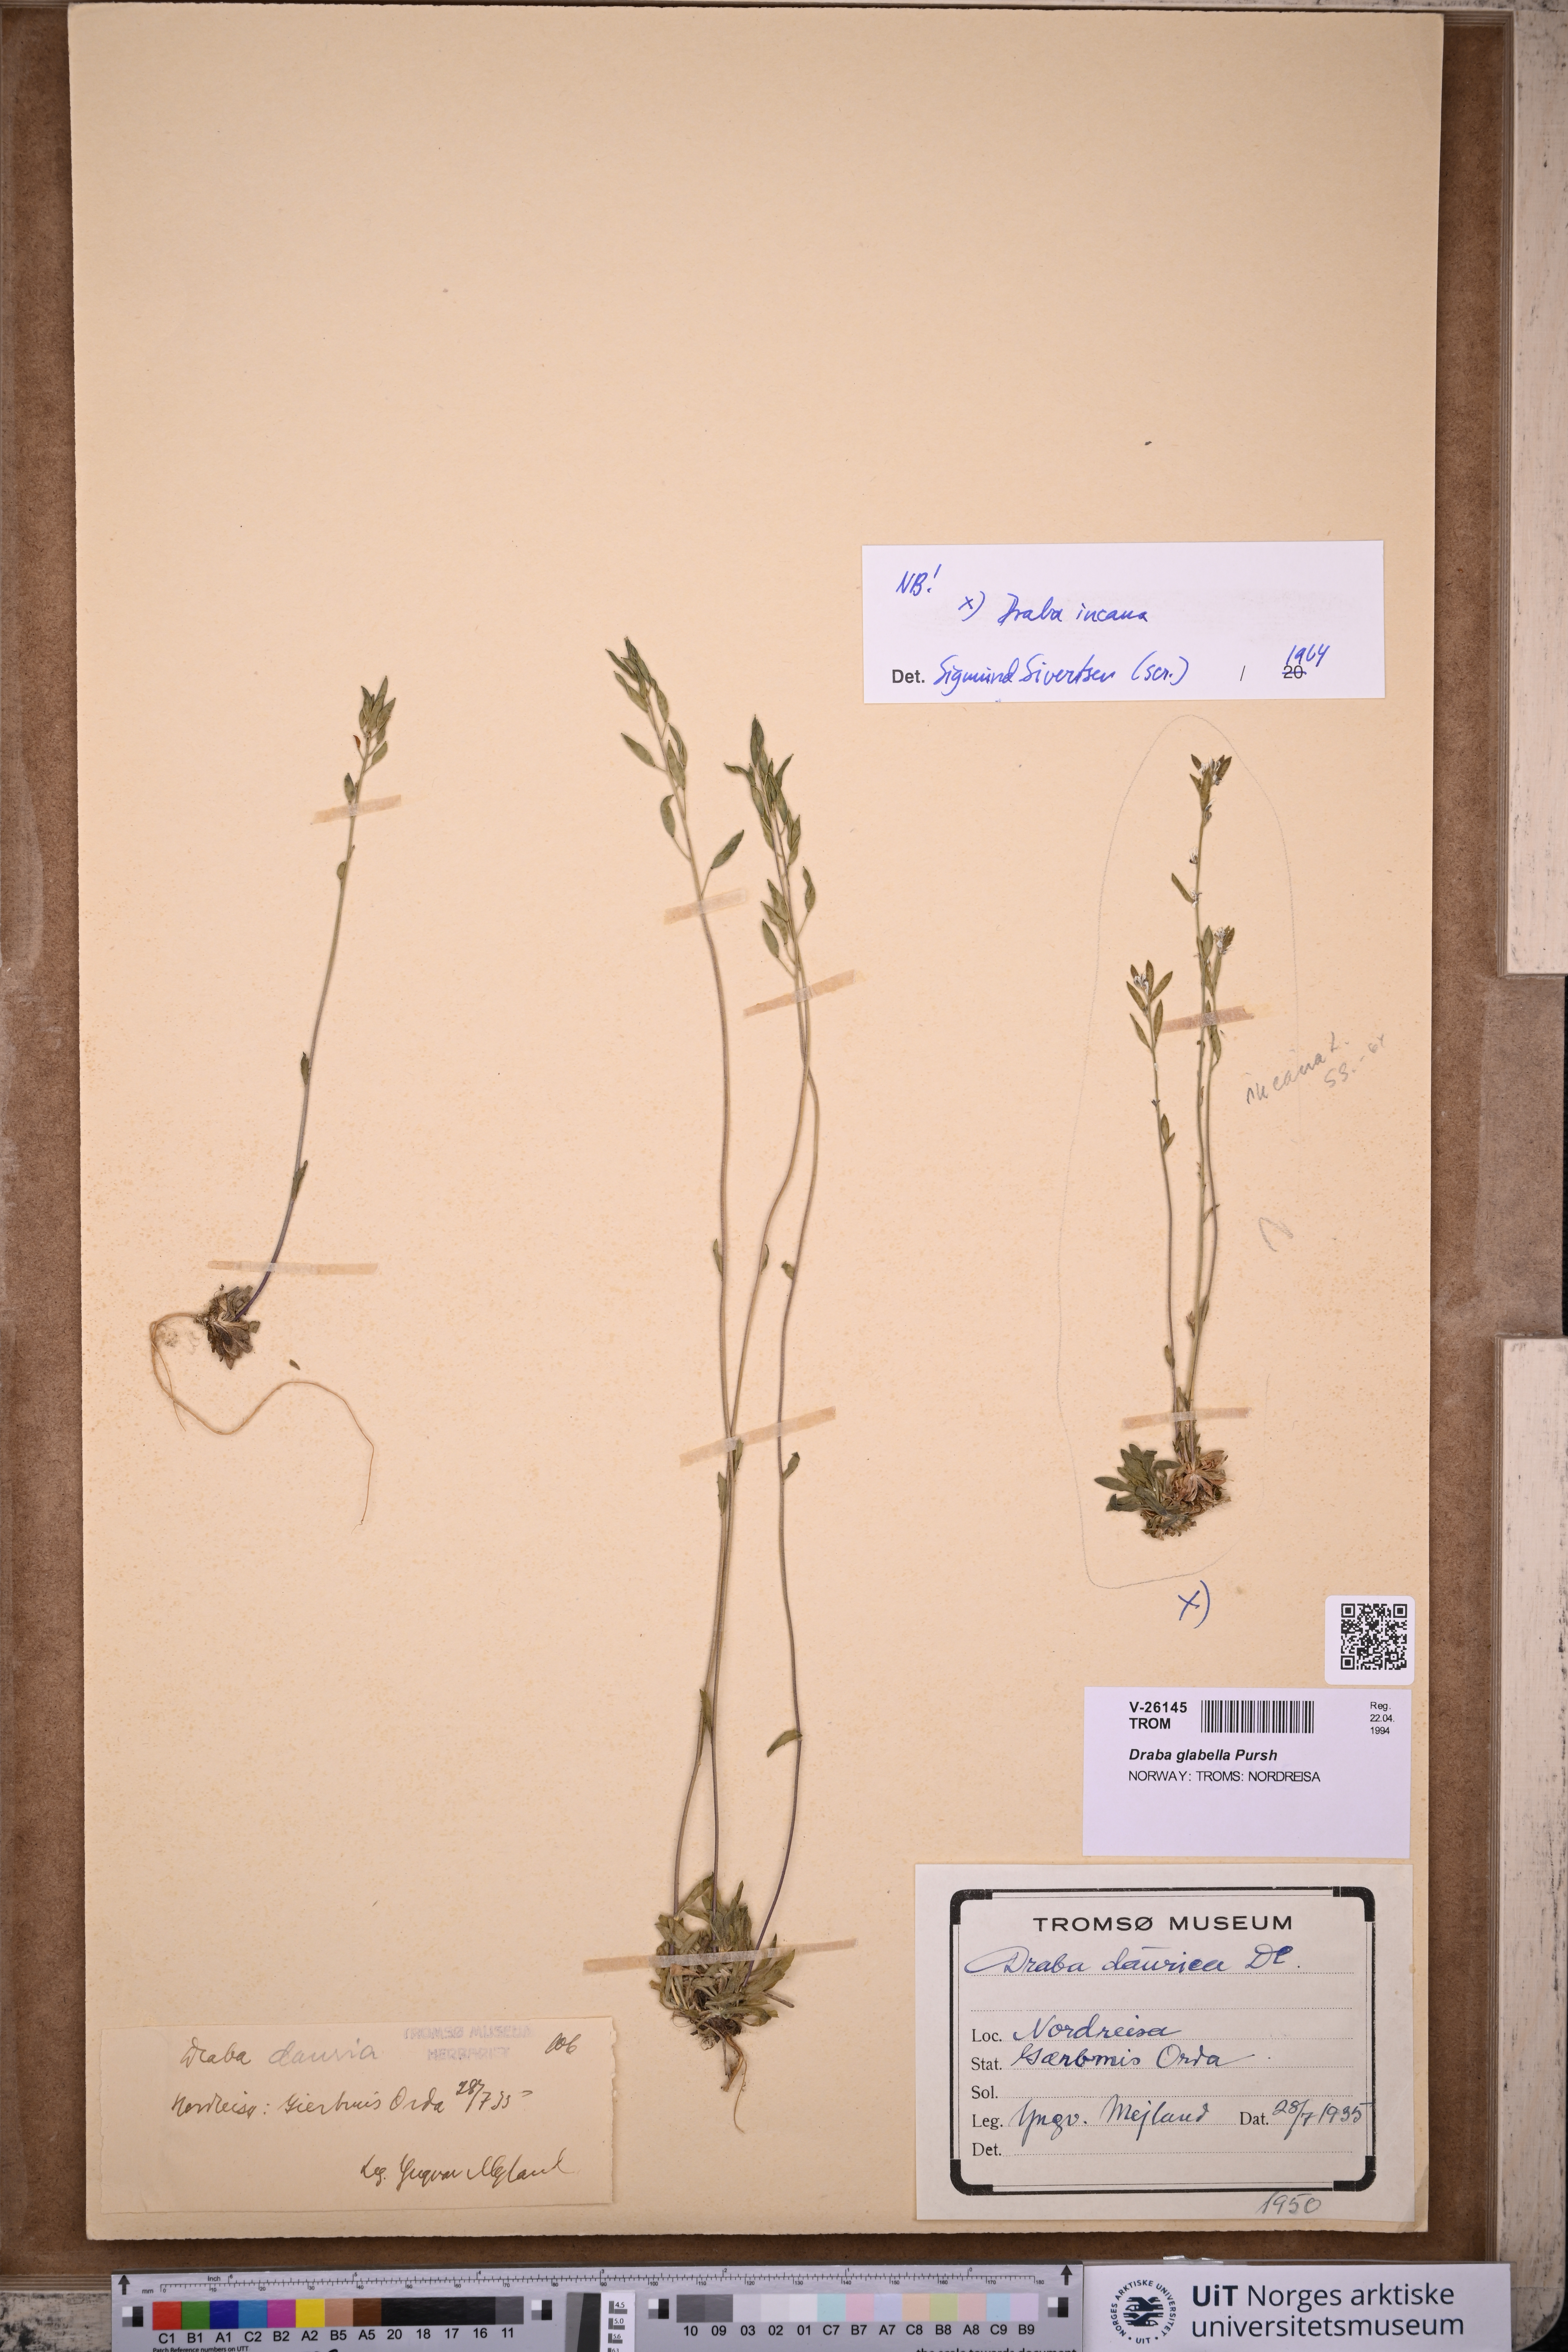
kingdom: Plantae
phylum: Tracheophyta
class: Magnoliopsida
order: Brassicales
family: Brassicaceae
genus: Draba
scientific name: Draba glabella
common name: Glaucous draba
